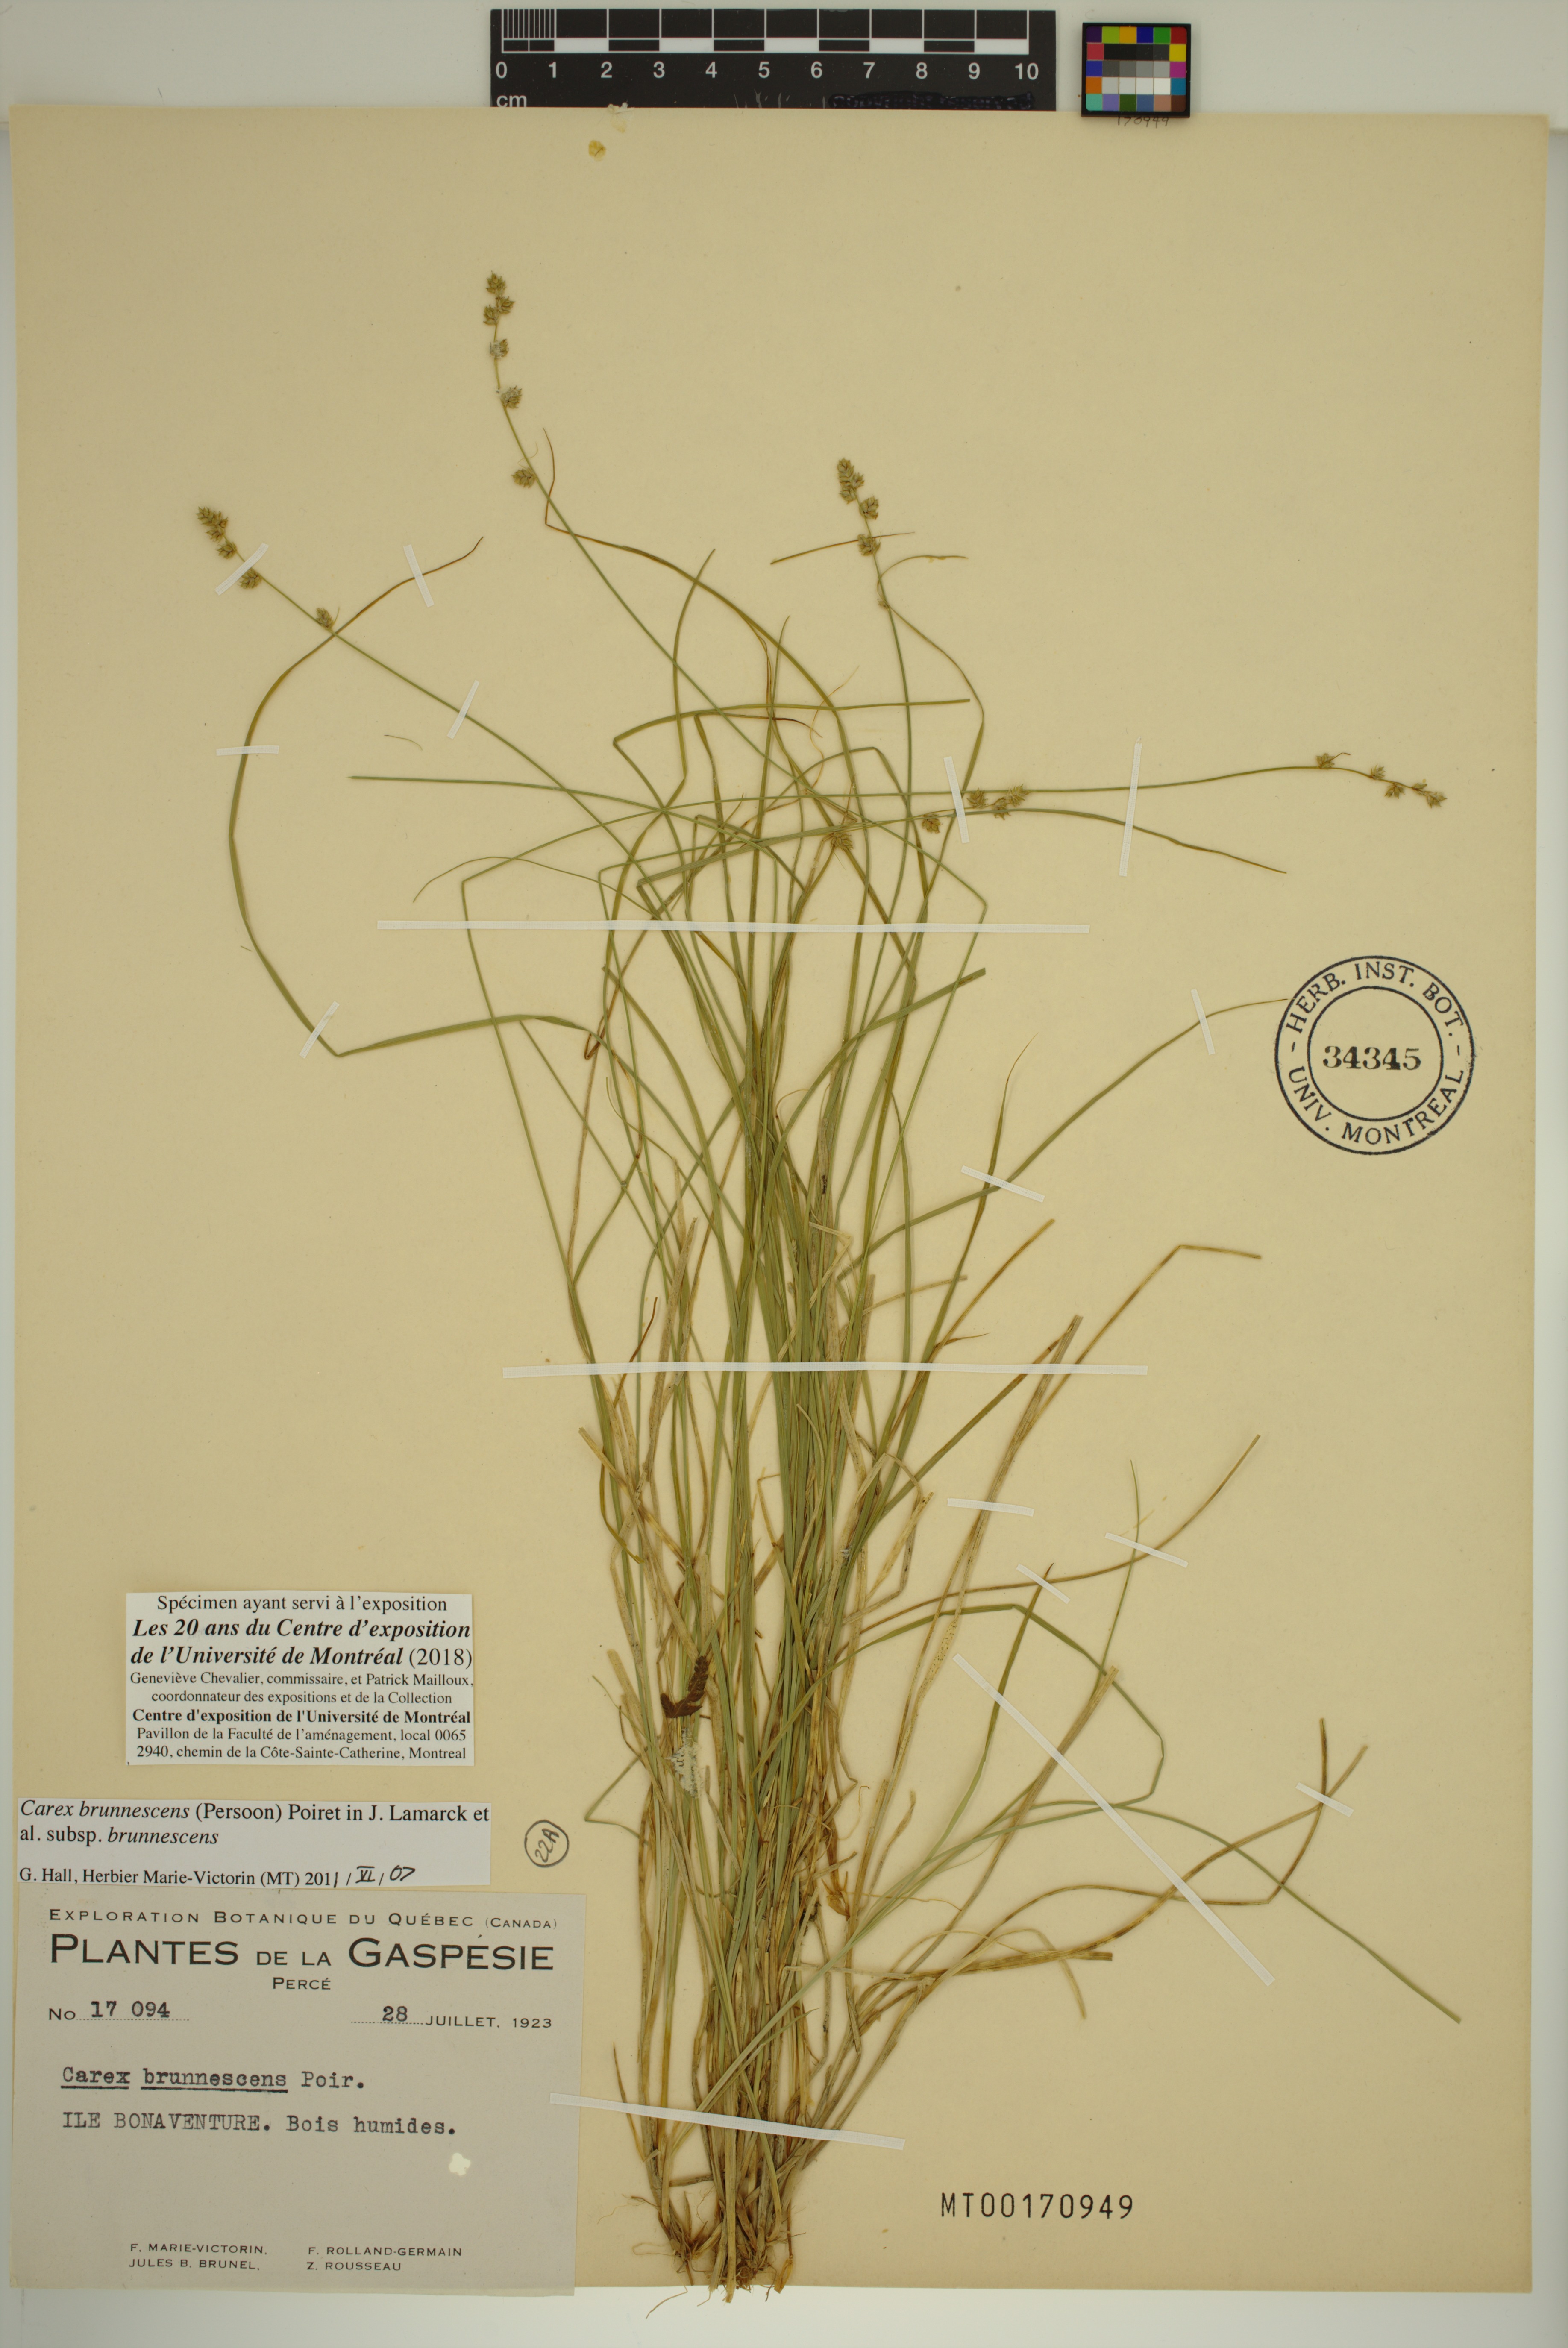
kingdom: Plantae
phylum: Tracheophyta
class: Liliopsida
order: Poales
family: Cyperaceae
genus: Carex
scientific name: Carex brunnescens
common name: Brown sedge
